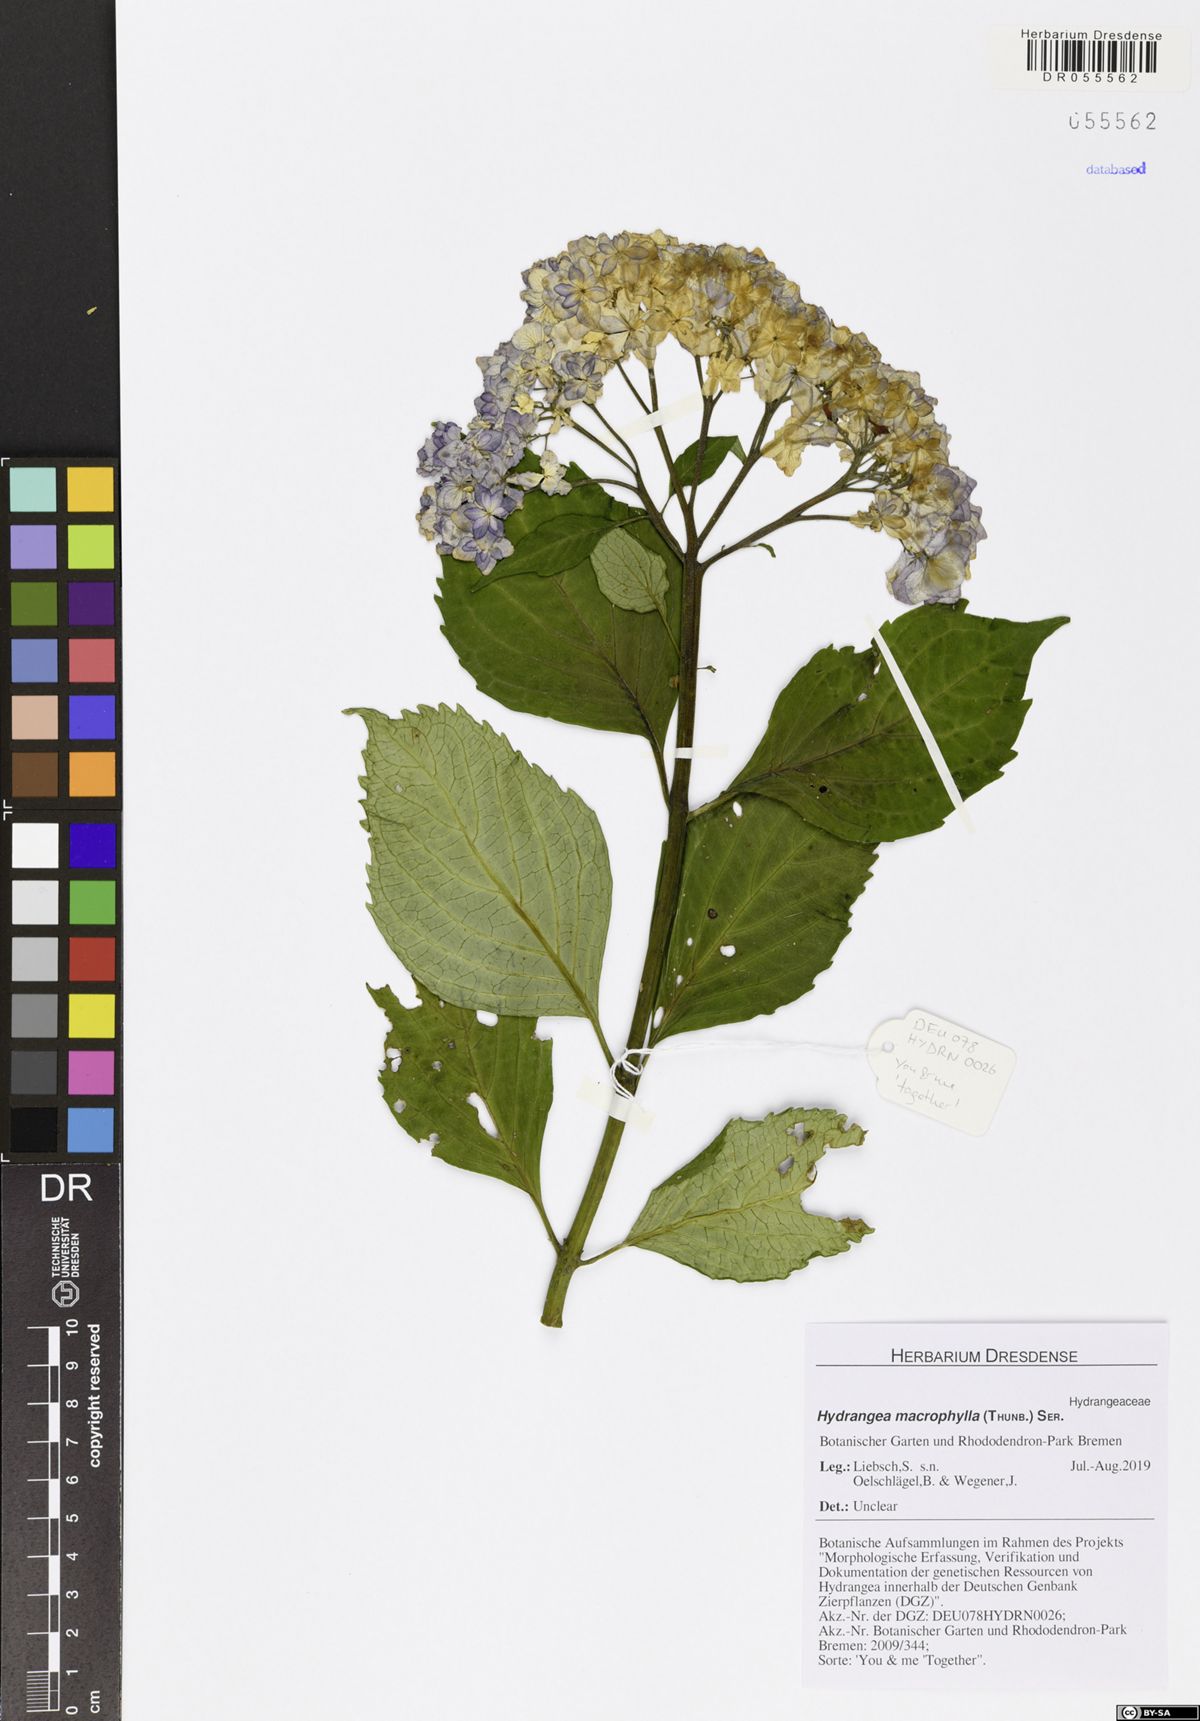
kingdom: Plantae
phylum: Tracheophyta
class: Magnoliopsida
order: Cornales
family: Hydrangeaceae
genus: Hydrangea
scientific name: Hydrangea macrophylla
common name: Hydrangea
